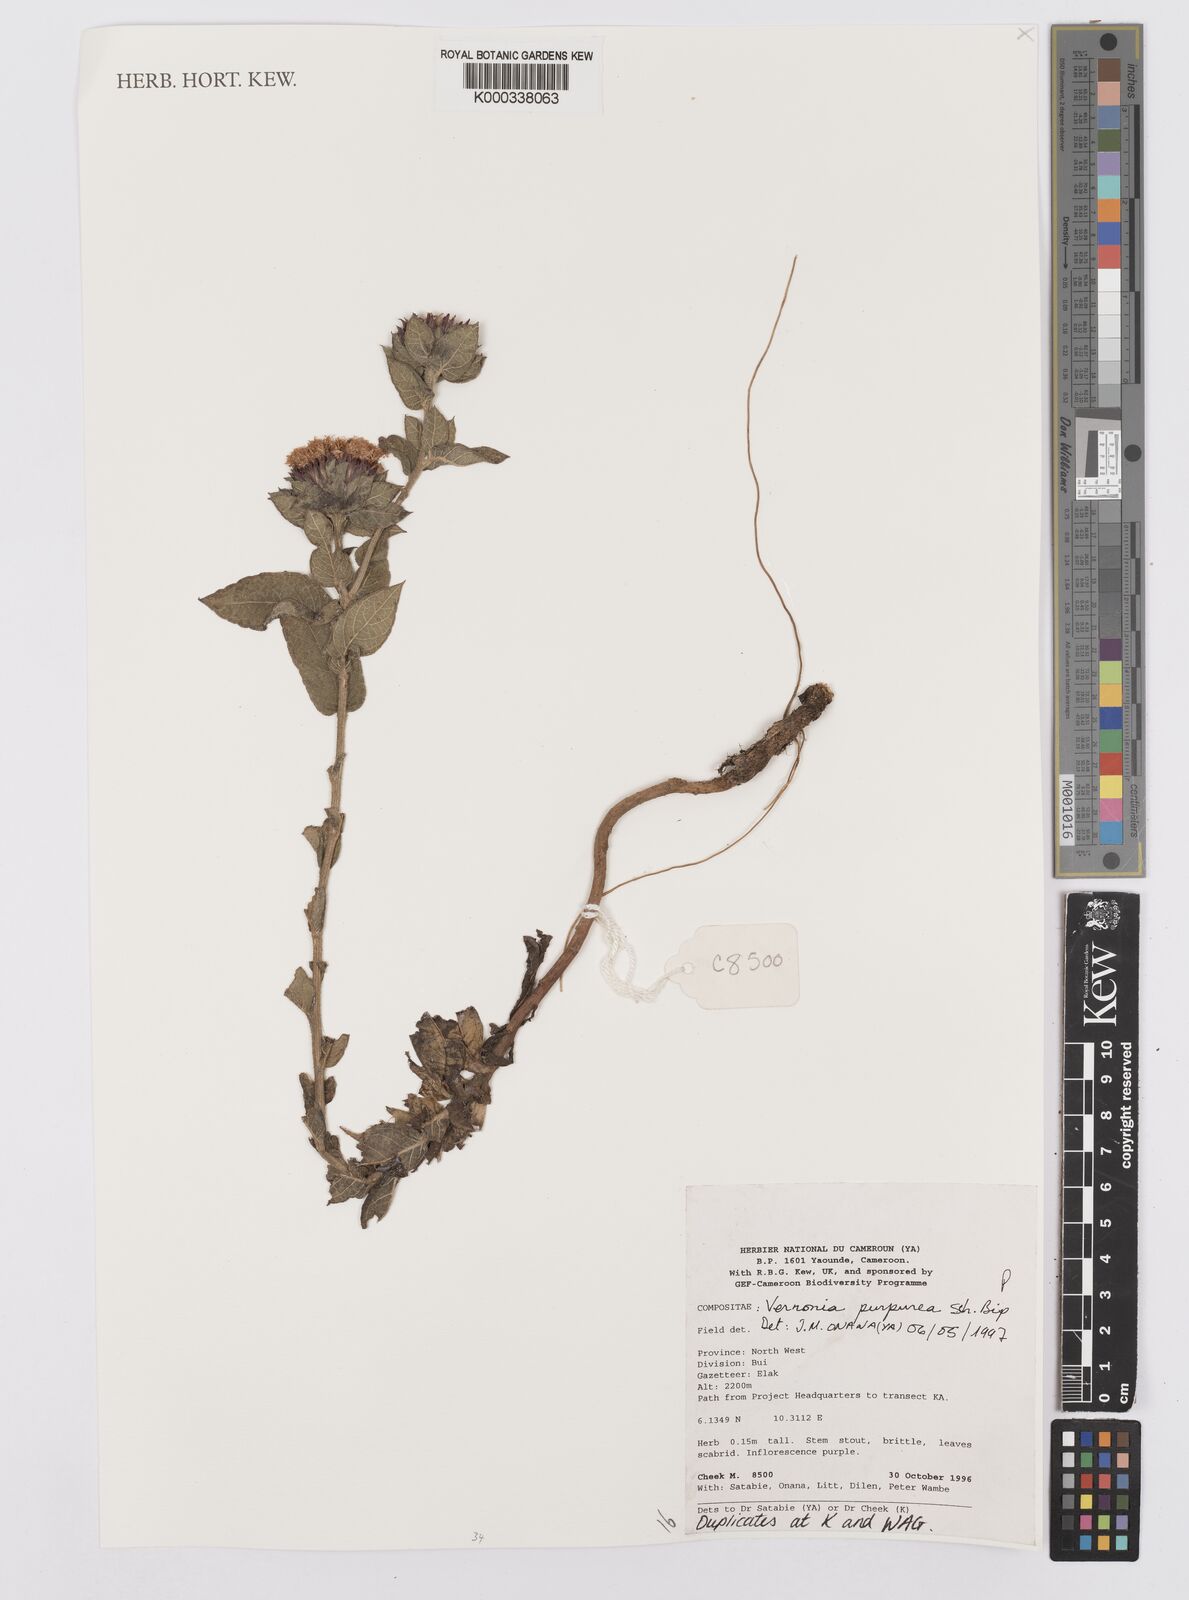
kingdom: Plantae
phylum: Tracheophyta
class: Magnoliopsida
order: Asterales
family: Asteraceae
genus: Vernonia
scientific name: Vernonia
